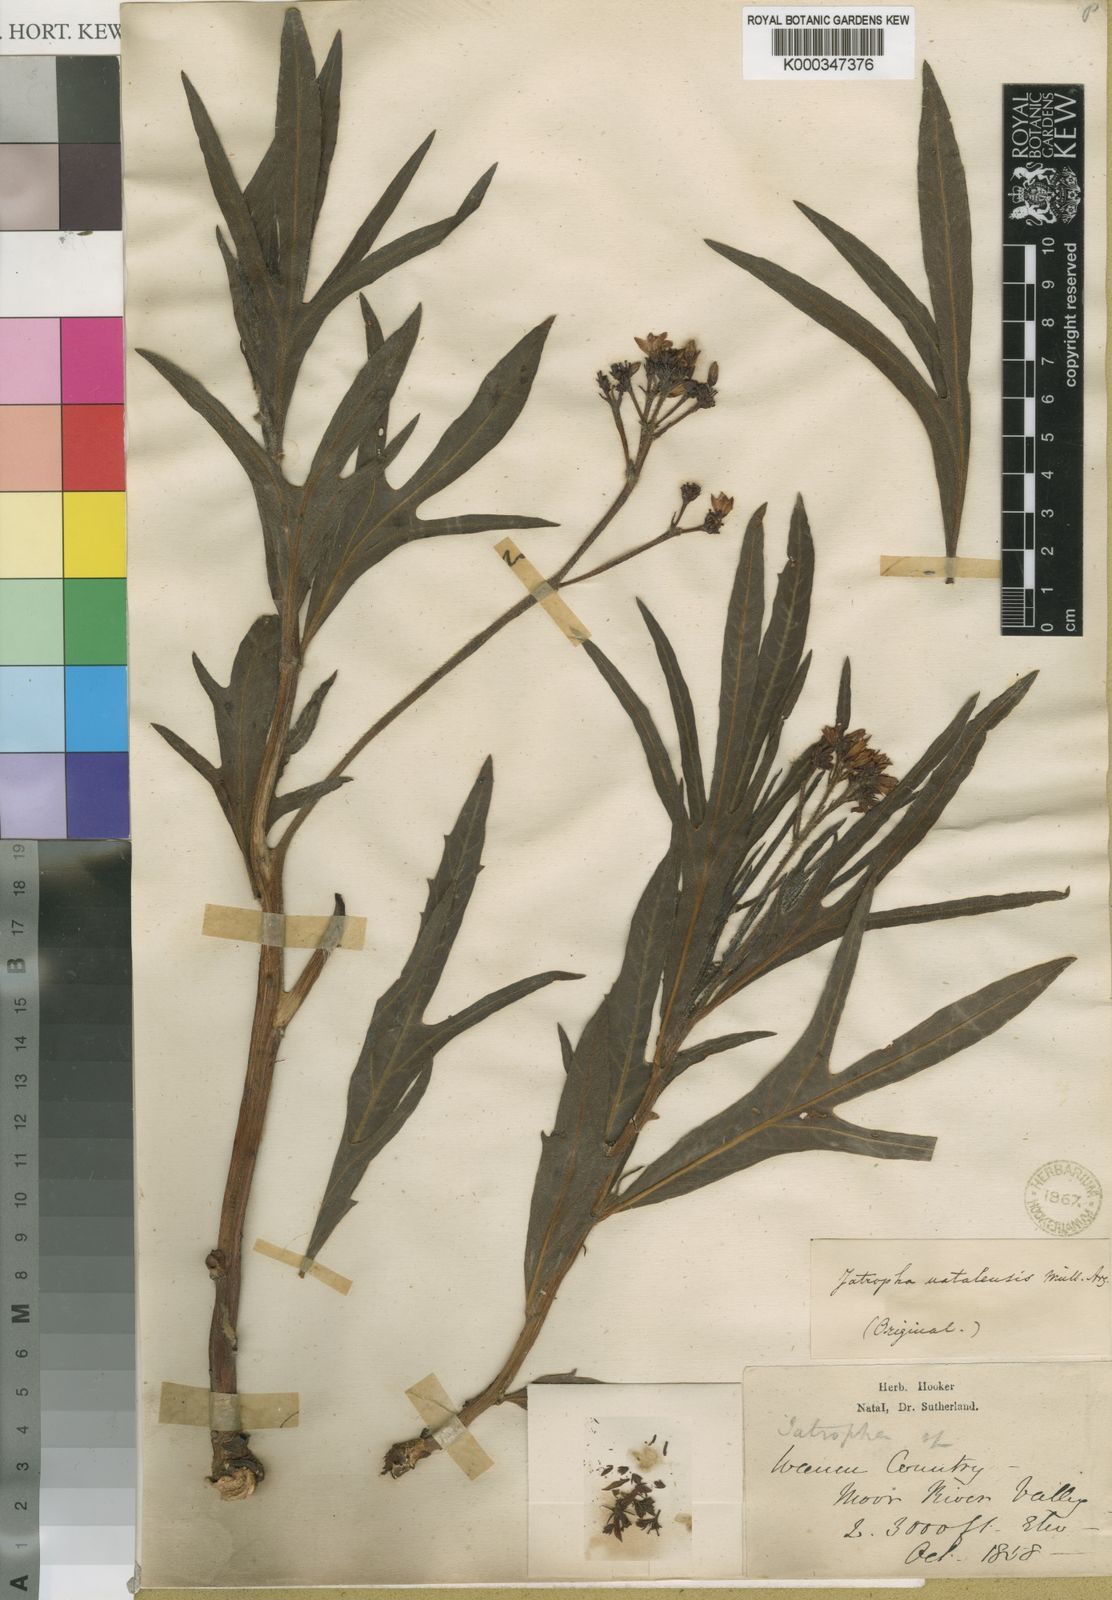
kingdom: Plantae
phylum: Tracheophyta
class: Magnoliopsida
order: Malpighiales
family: Euphorbiaceae
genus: Jatropha
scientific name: Jatropha
